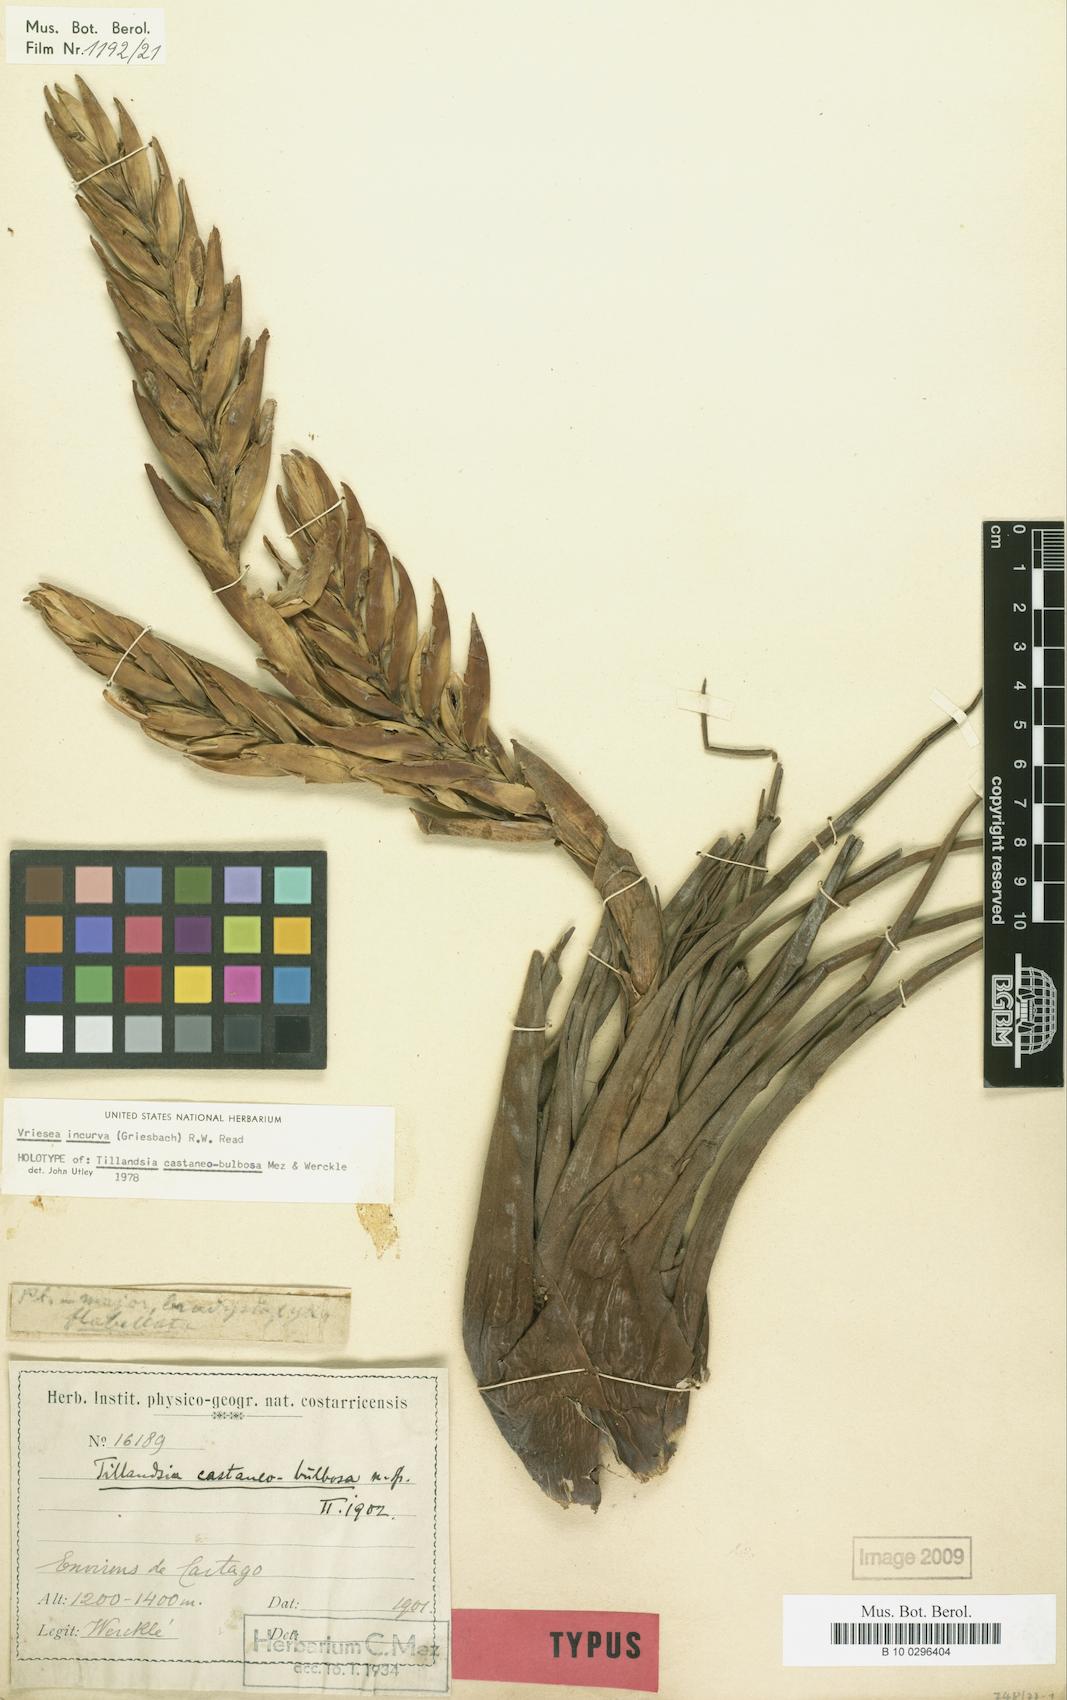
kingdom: Plantae
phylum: Tracheophyta
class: Liliopsida
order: Poales
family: Bromeliaceae
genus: Vriesea
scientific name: Vriesea incurva
